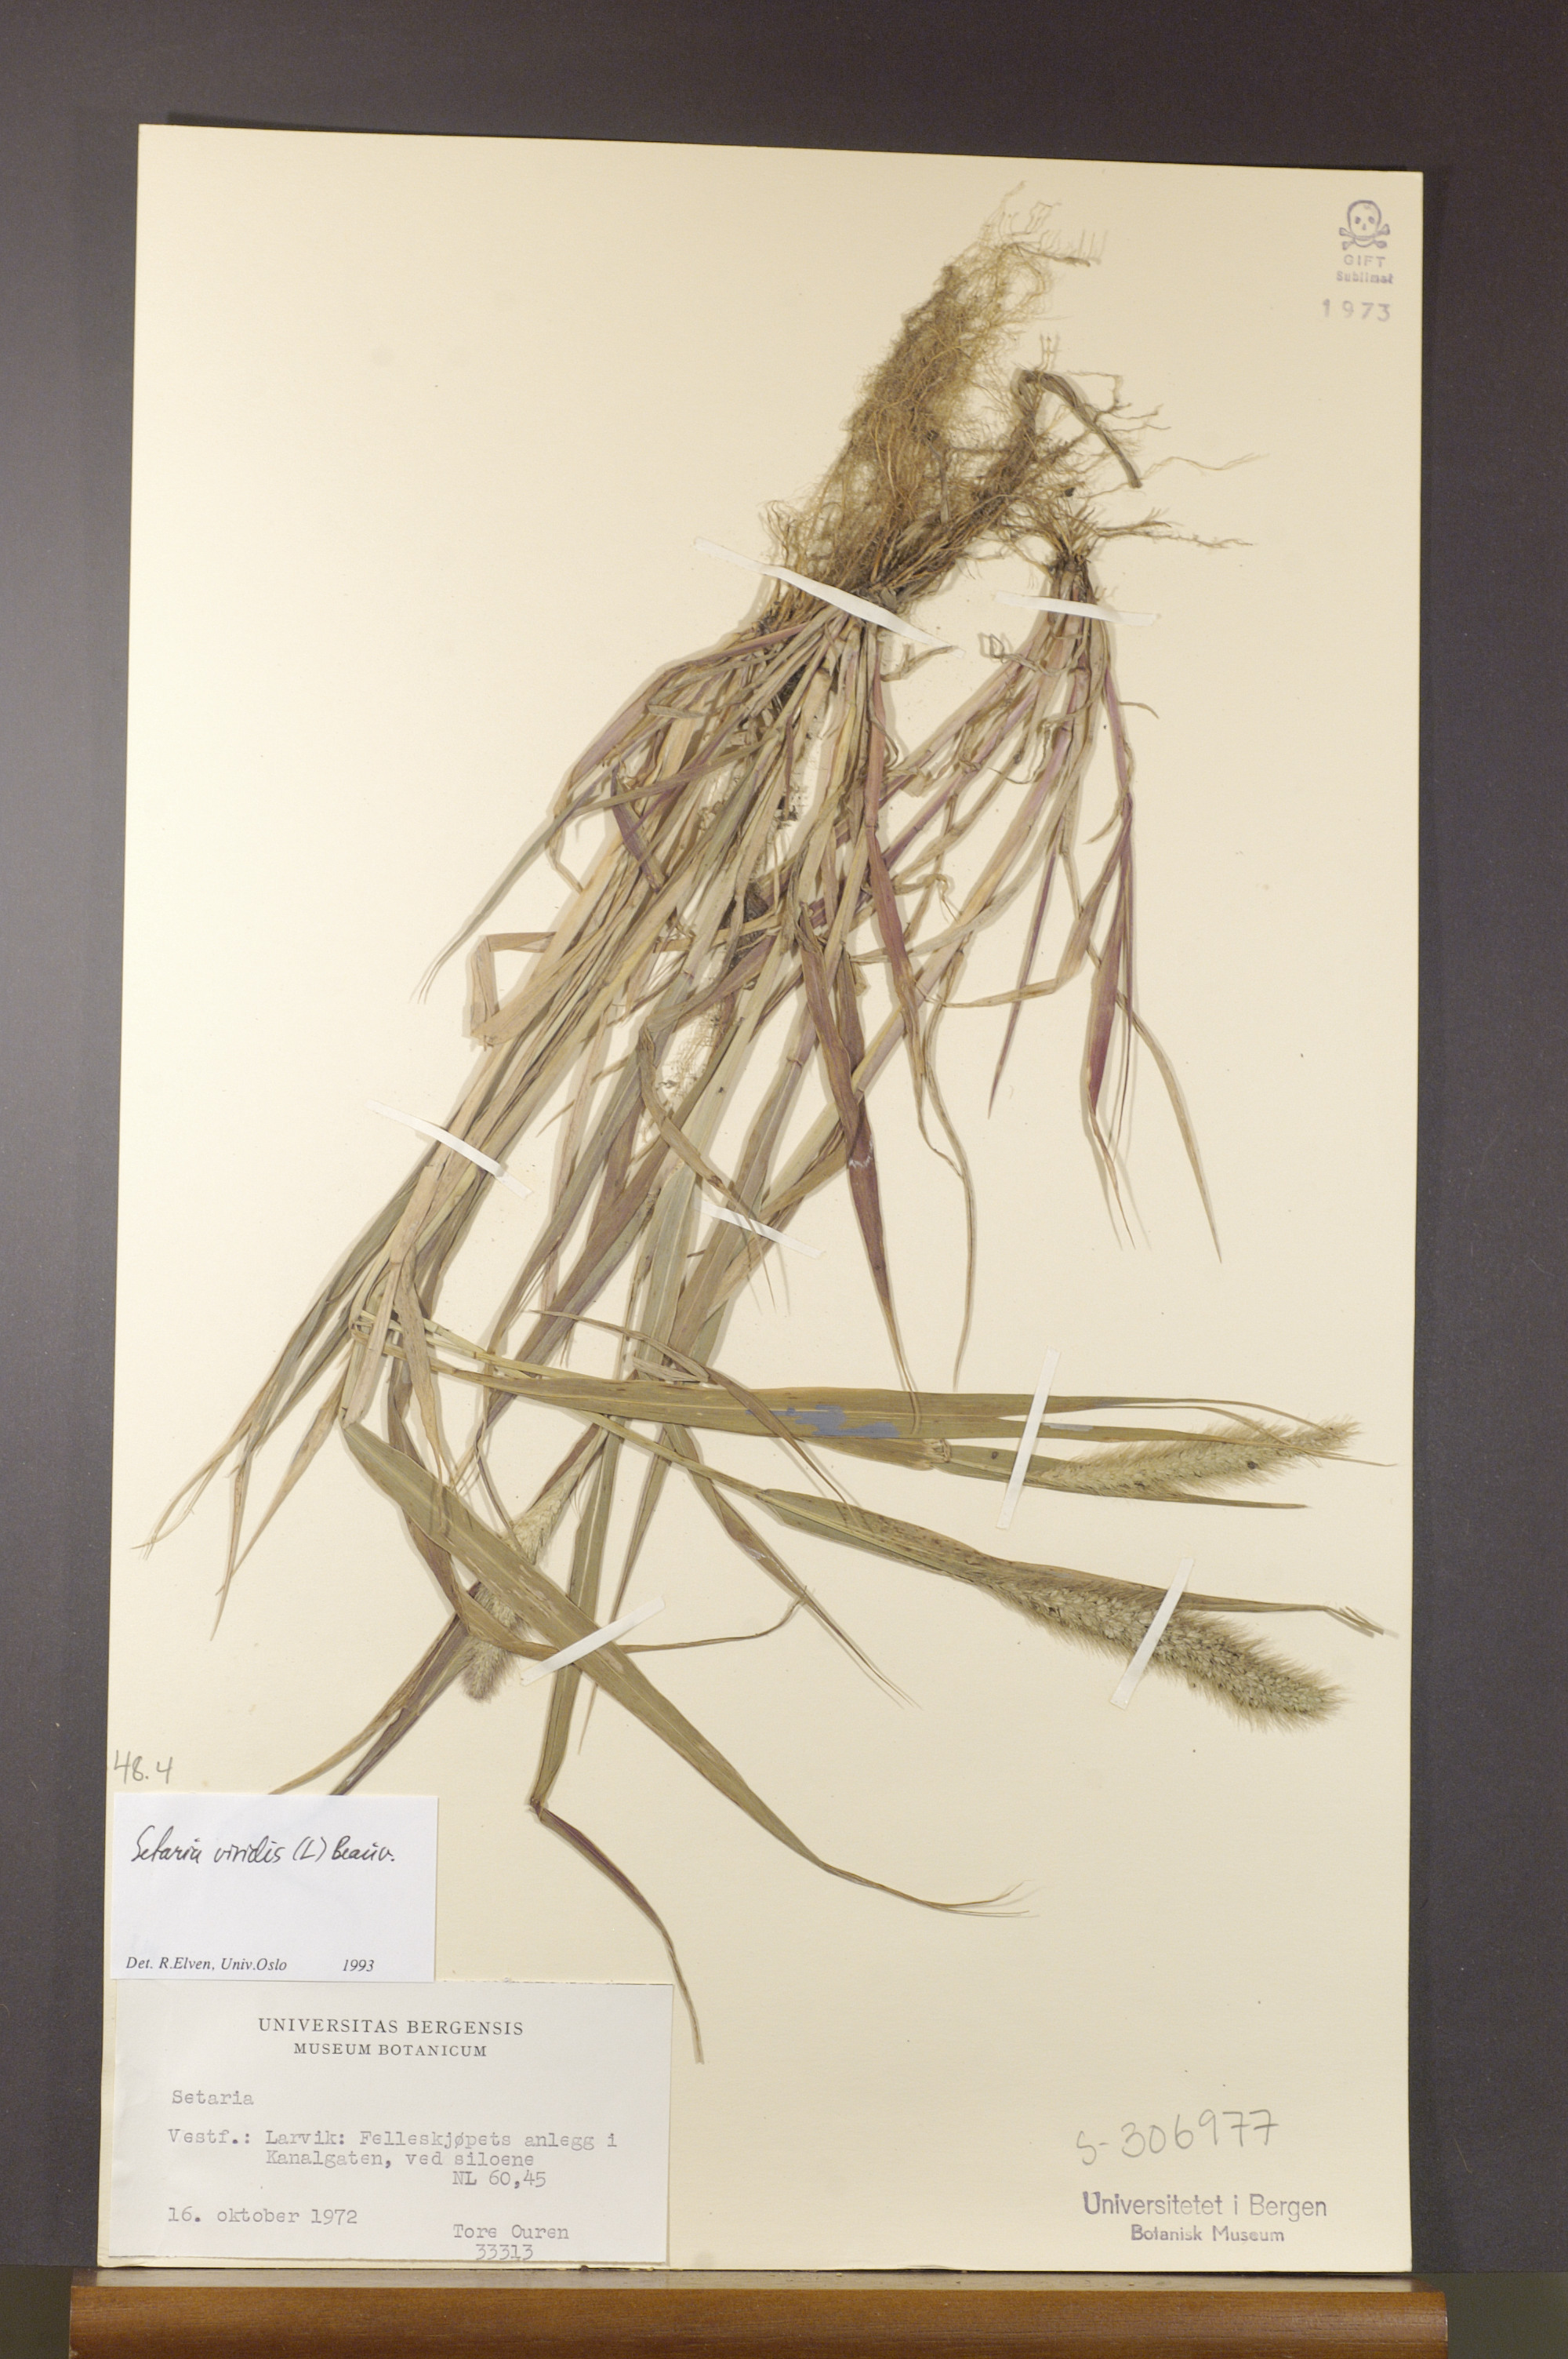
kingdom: Plantae
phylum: Tracheophyta
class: Liliopsida
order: Poales
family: Poaceae
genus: Setaria
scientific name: Setaria viridis
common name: Green bristlegrass
